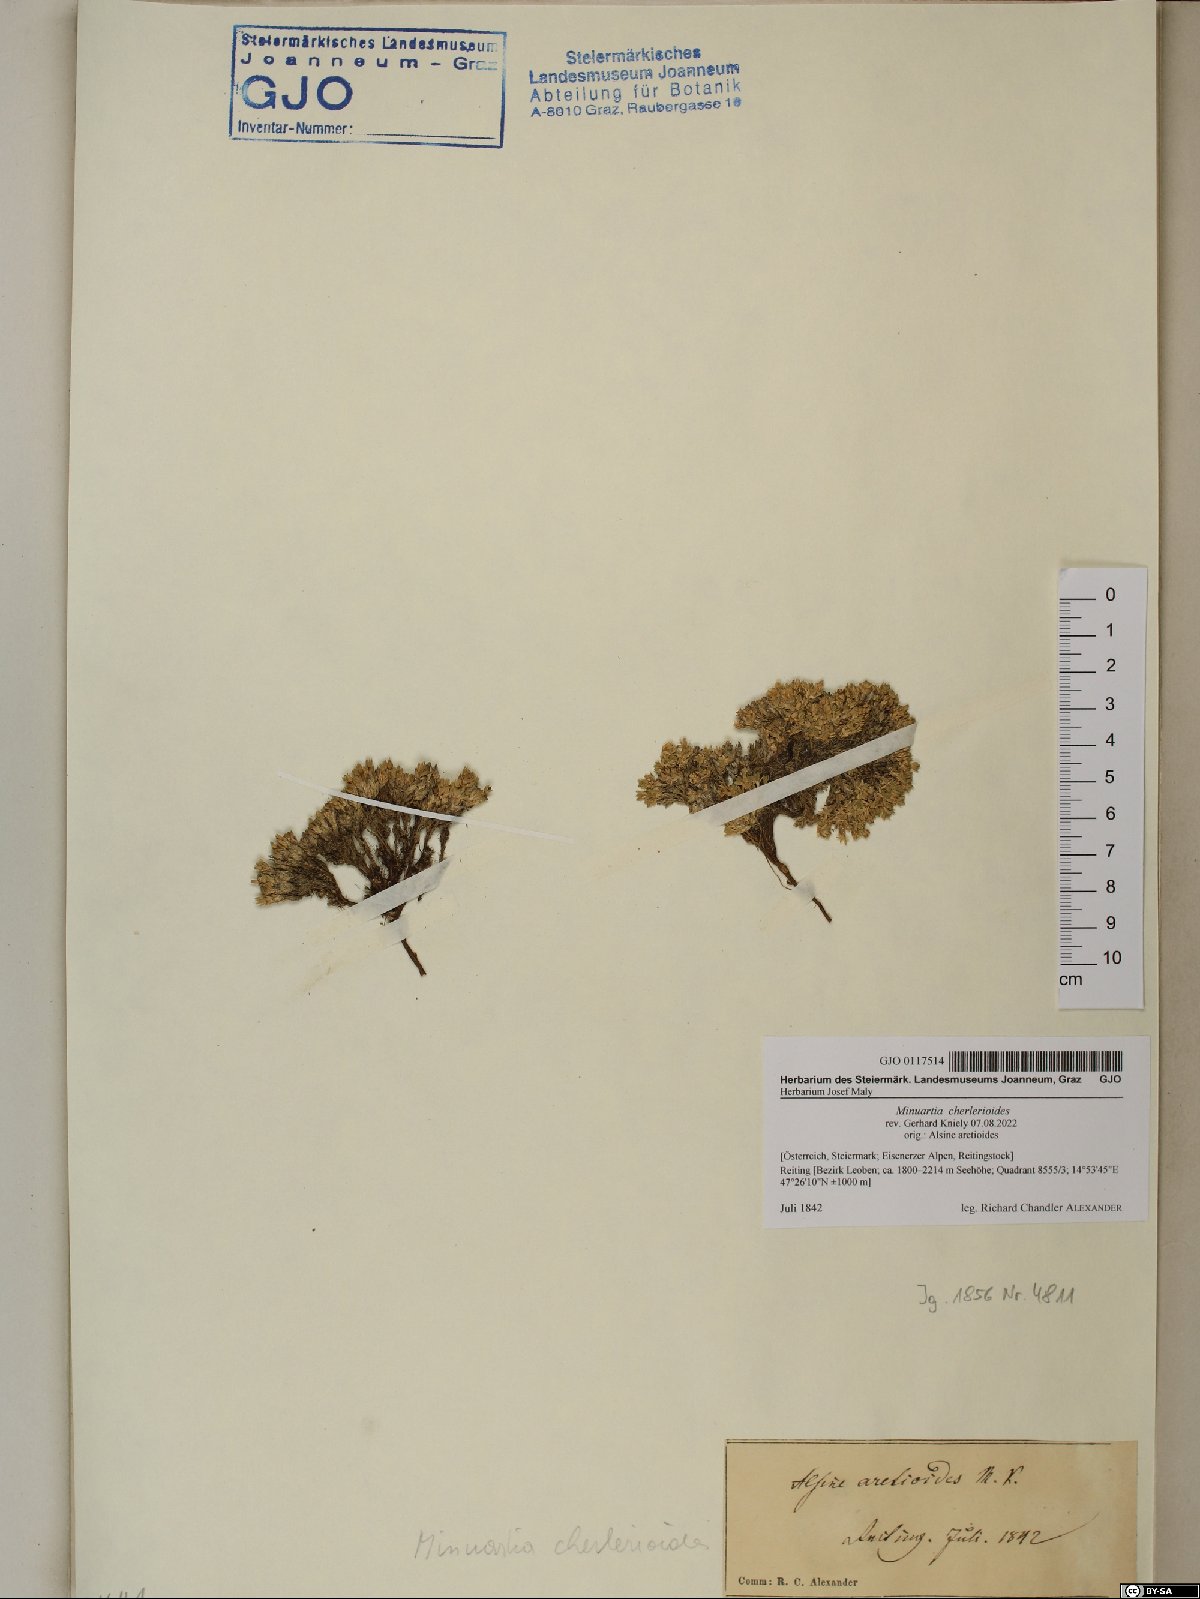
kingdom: Plantae
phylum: Tracheophyta
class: Magnoliopsida
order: Caryophyllales
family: Caryophyllaceae
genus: Facchinia
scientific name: Facchinia cherlerioides
